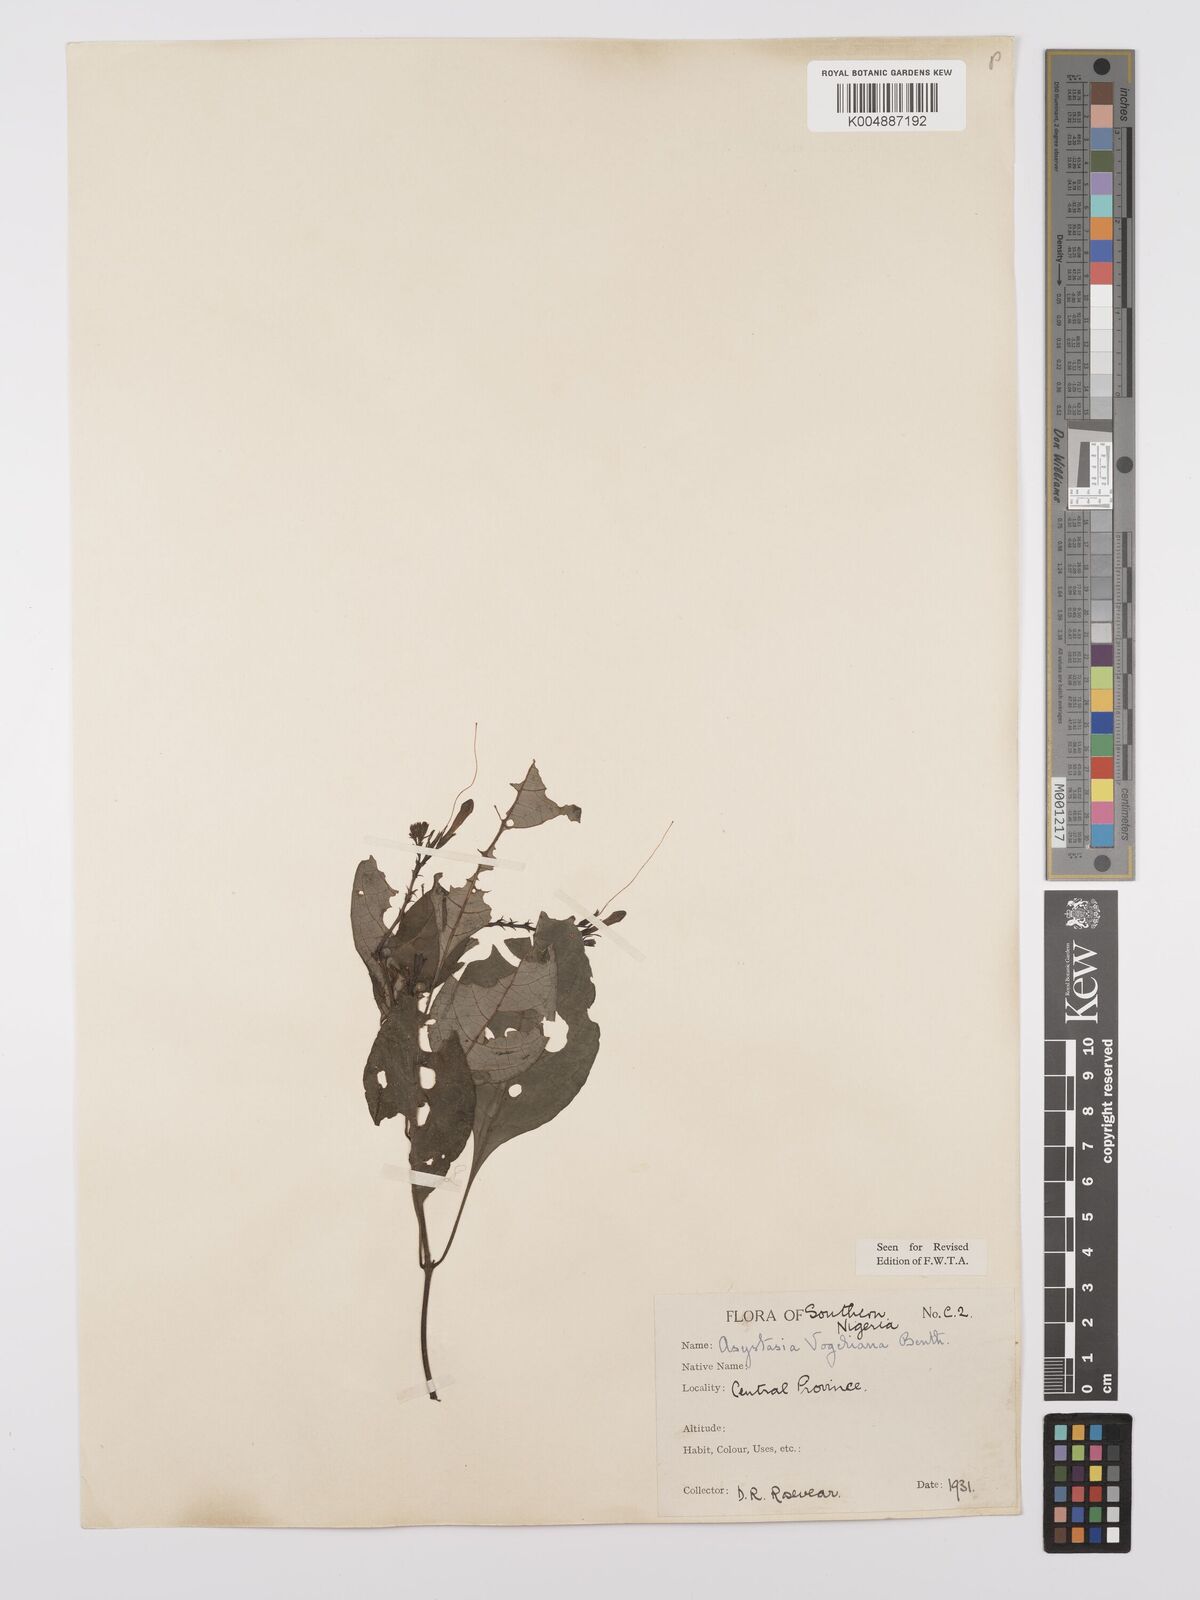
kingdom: Plantae
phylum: Tracheophyta
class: Magnoliopsida
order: Lamiales
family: Acanthaceae
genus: Asystasia
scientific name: Asystasia vogeliana
